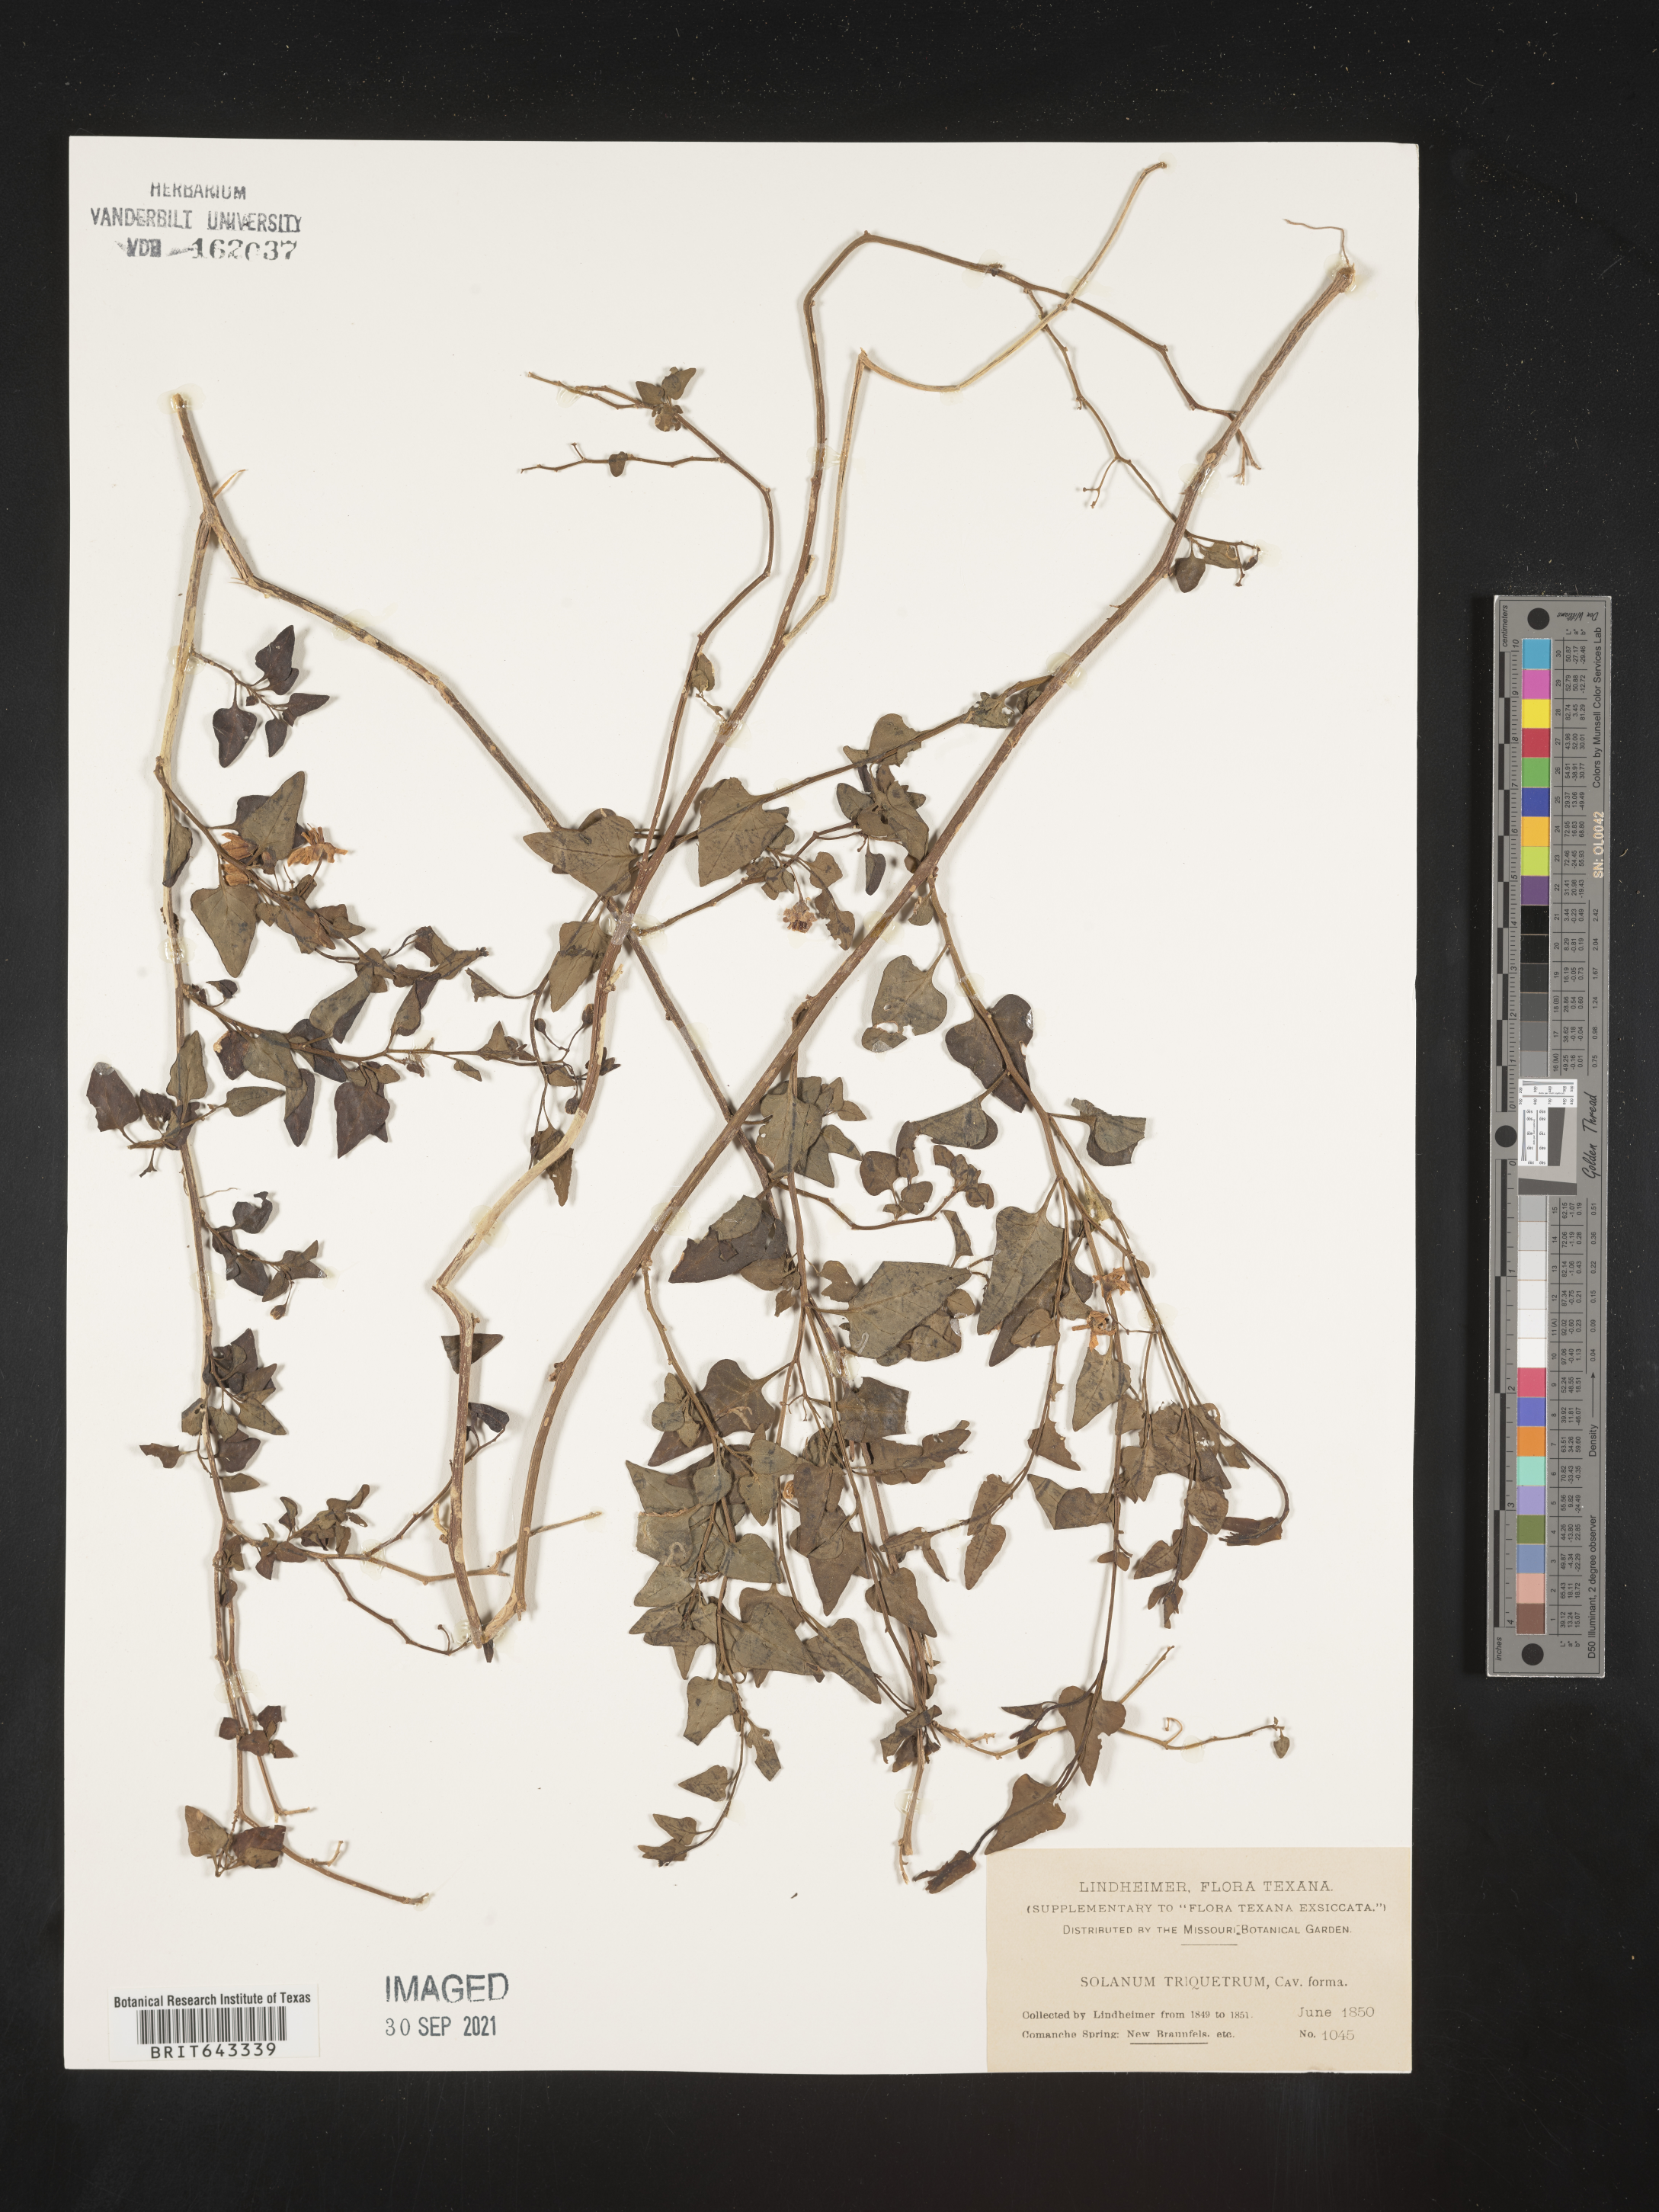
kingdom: Plantae
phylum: Tracheophyta
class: Magnoliopsida
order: Solanales
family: Solanaceae
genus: Solanum
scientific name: Solanum
